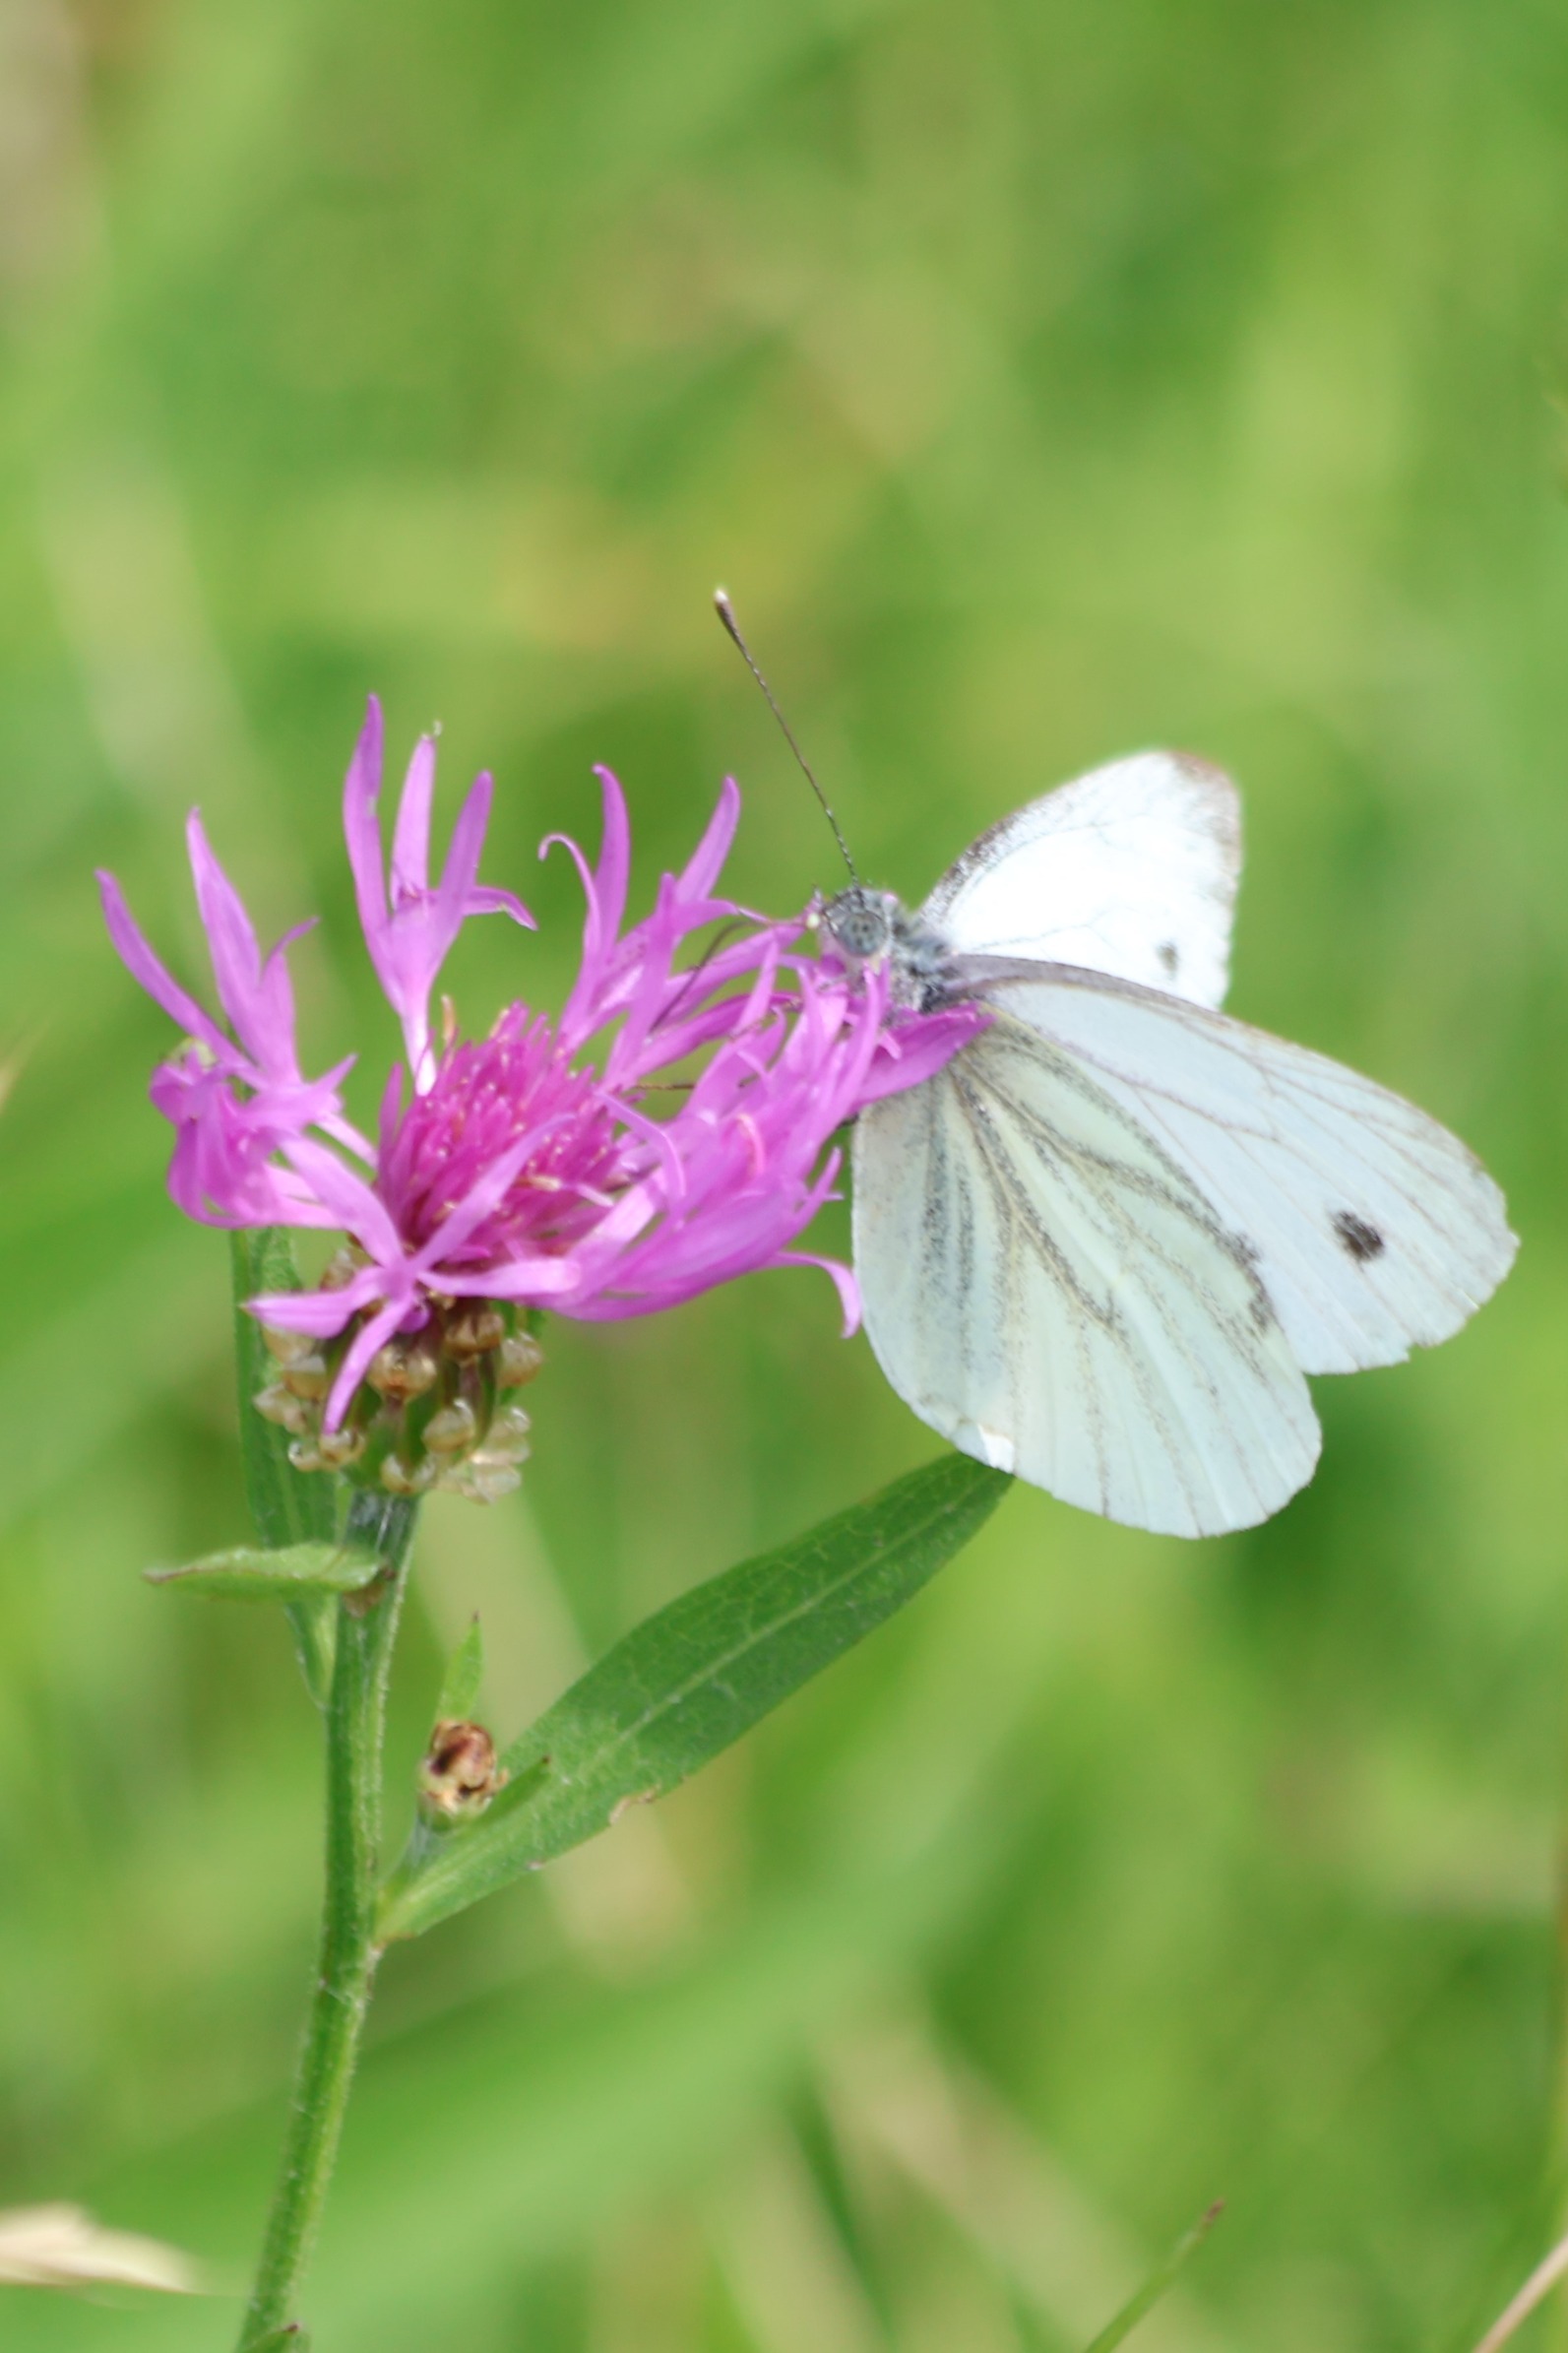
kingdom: Animalia
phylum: Arthropoda
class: Insecta
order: Lepidoptera
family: Pieridae
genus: Pieris
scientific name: Pieris napi
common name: Grønåret kålsommerfugl
